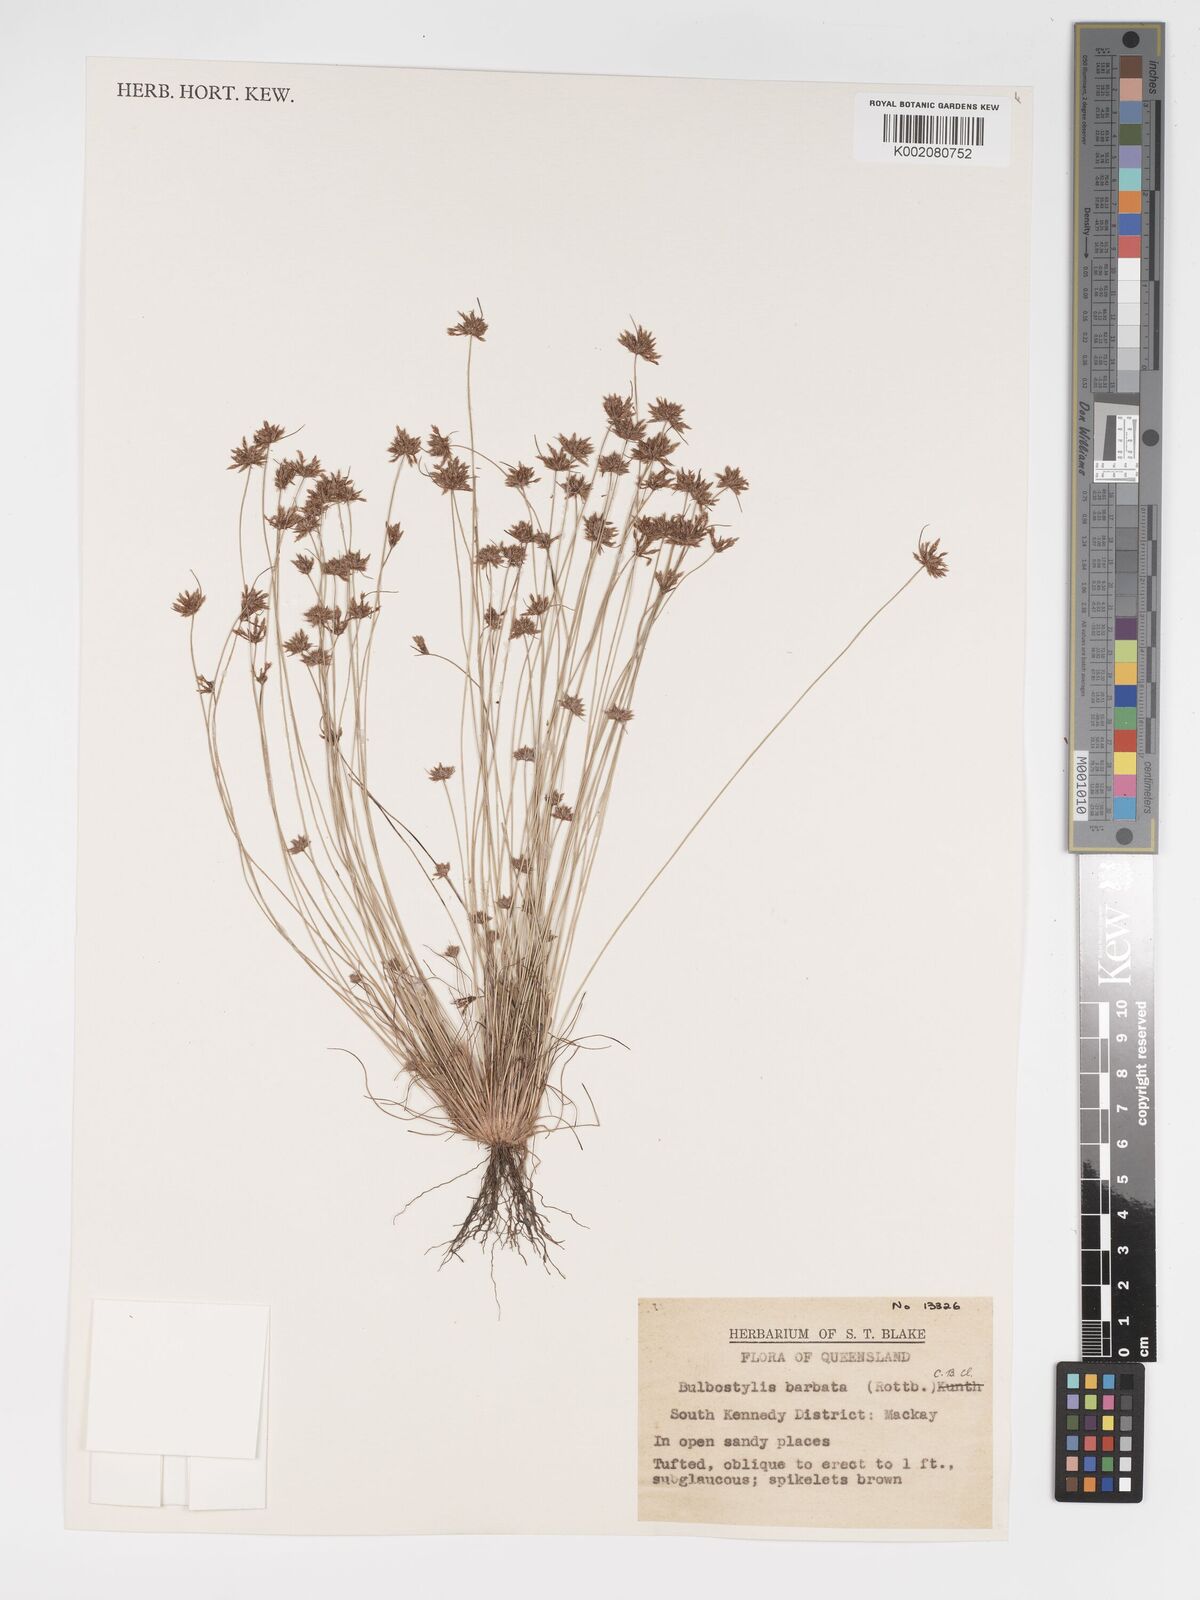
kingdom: Plantae
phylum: Tracheophyta
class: Liliopsida
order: Poales
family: Cyperaceae
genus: Bulbostylis
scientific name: Bulbostylis barbata
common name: Watergrass
